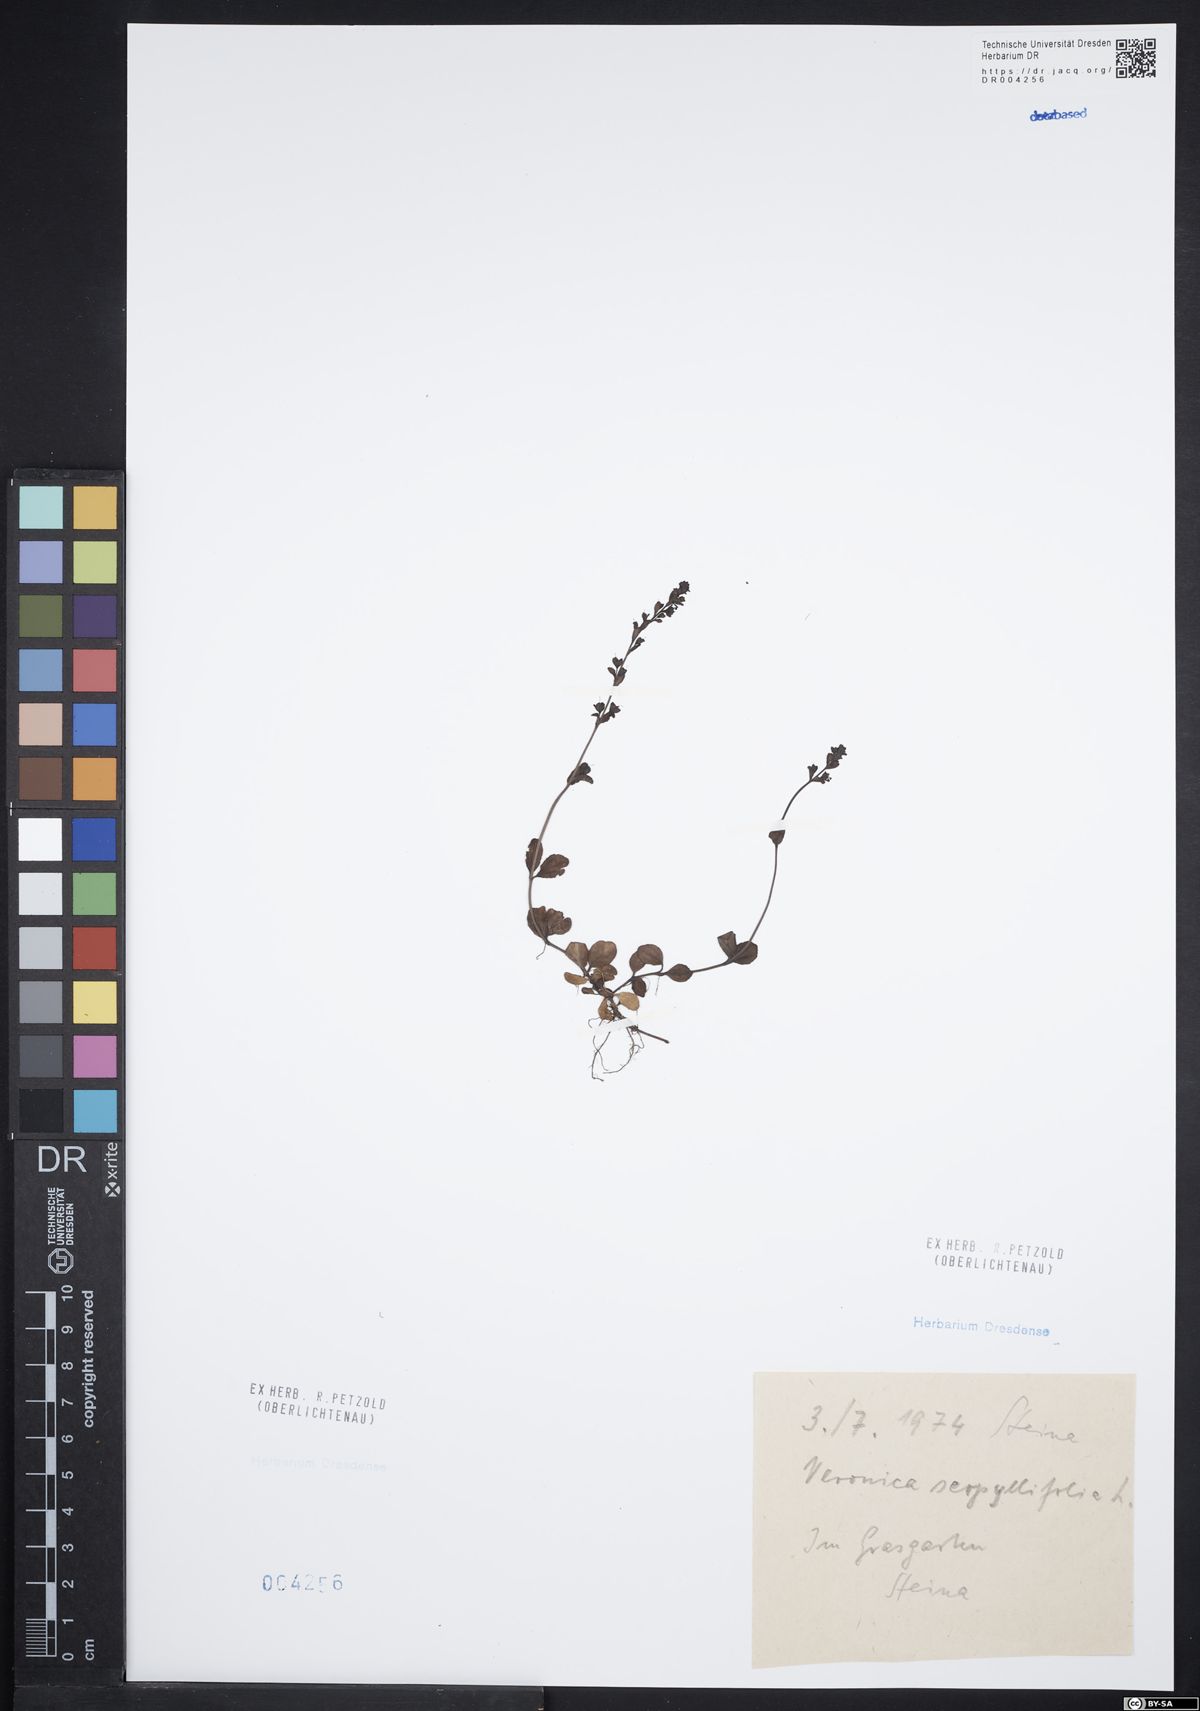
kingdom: Plantae
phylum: Tracheophyta
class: Magnoliopsida
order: Lamiales
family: Plantaginaceae
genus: Veronica
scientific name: Veronica serpyllifolia
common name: Thyme-leaved speedwell
